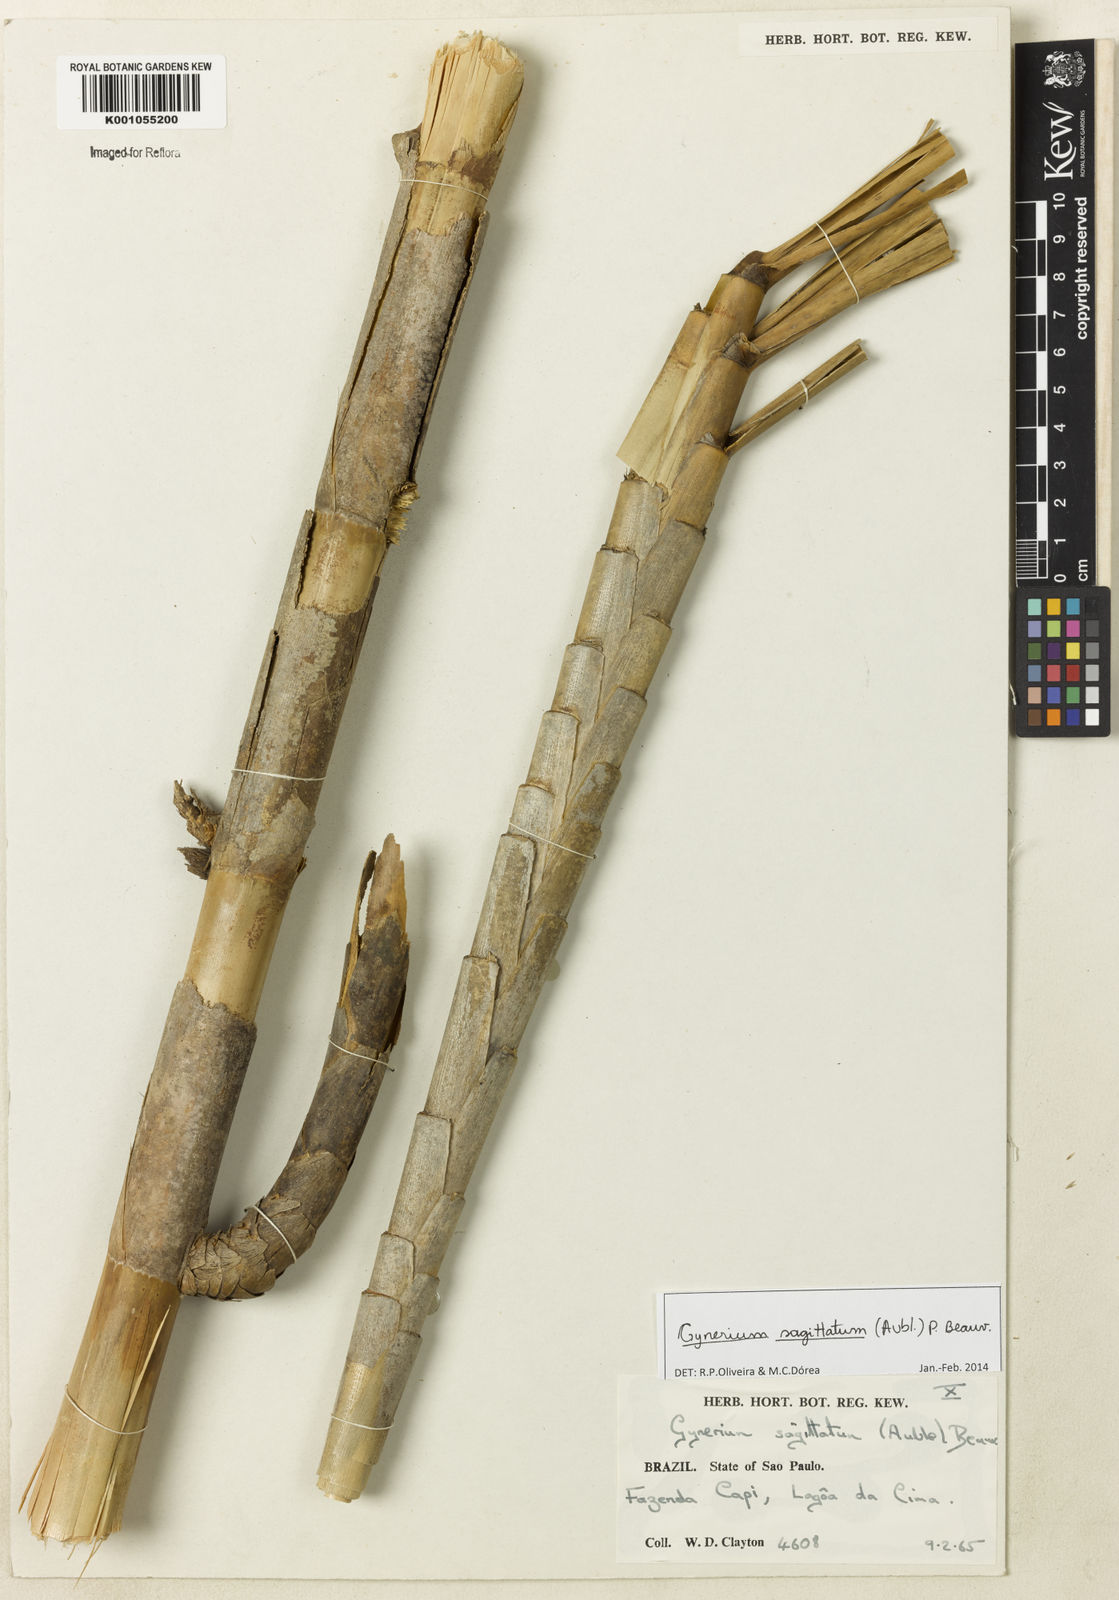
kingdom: Plantae
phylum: Tracheophyta
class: Liliopsida
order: Poales
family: Poaceae
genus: Gynerium
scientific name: Gynerium sagittatum
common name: Wild cane
